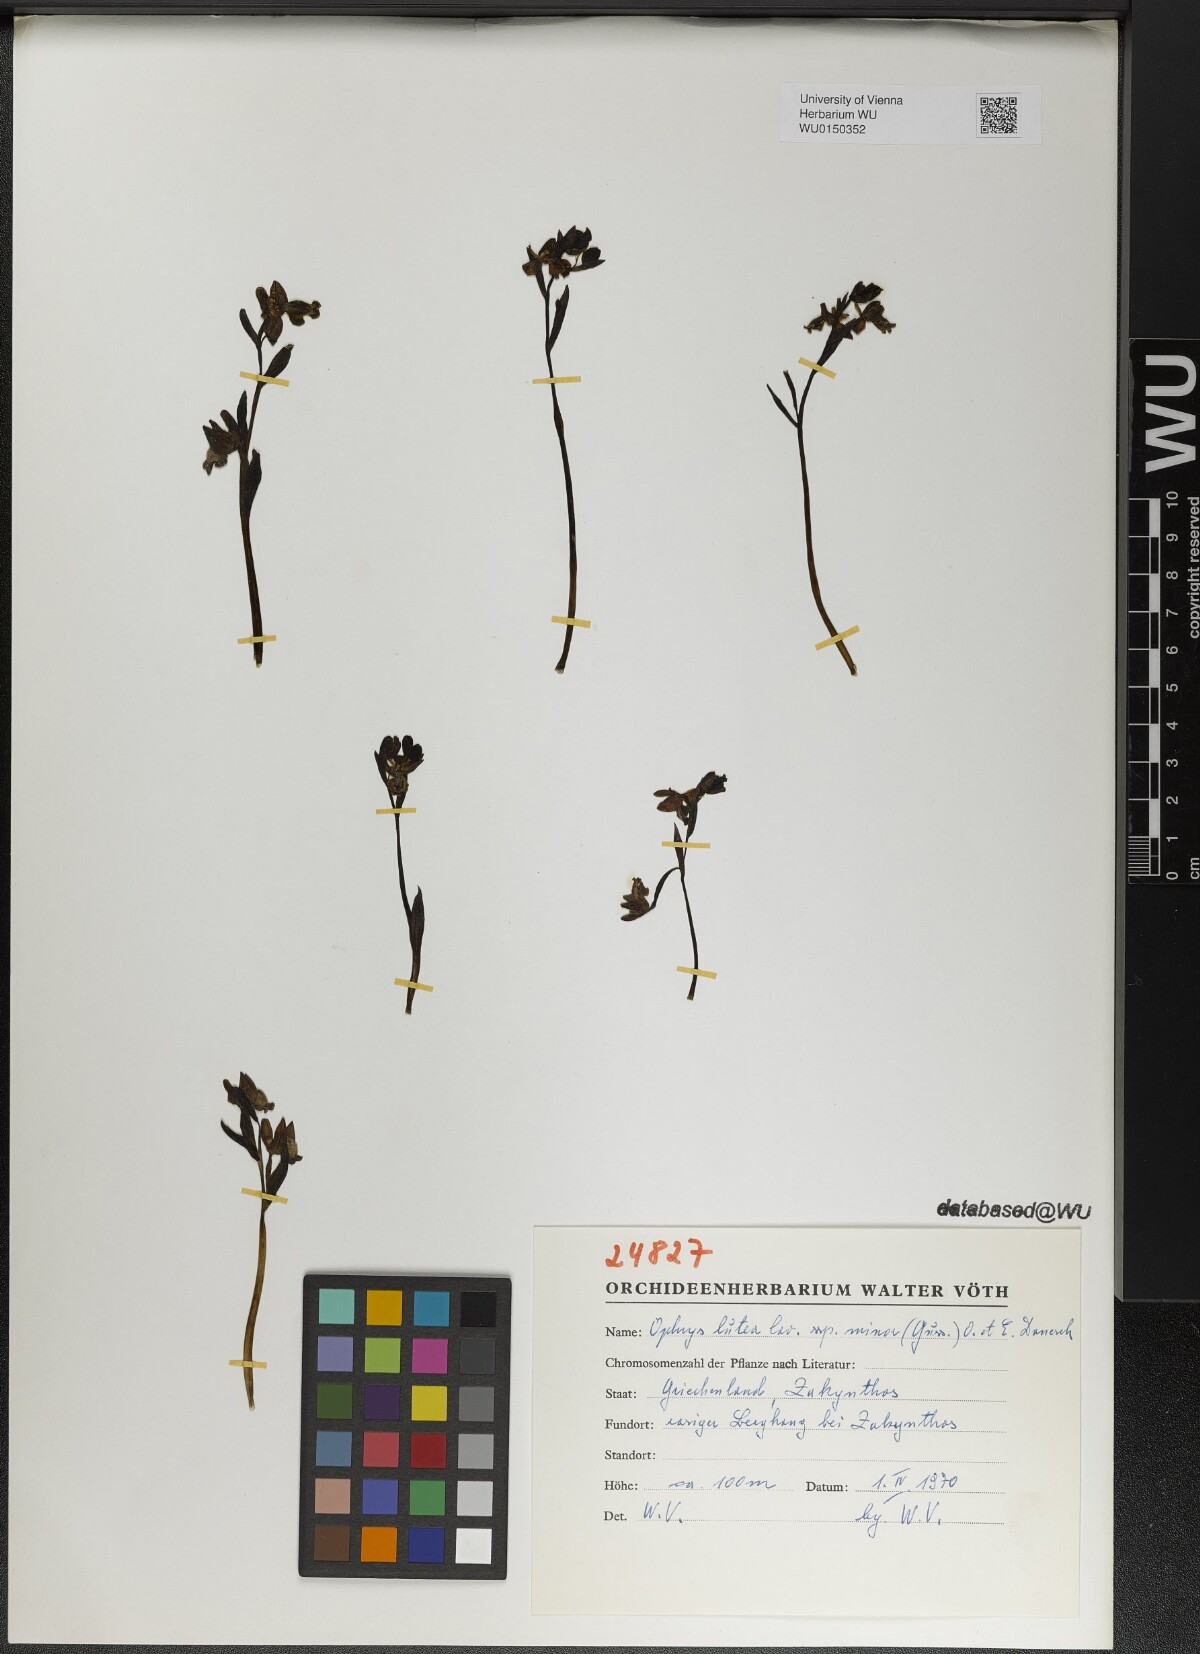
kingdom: Plantae
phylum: Tracheophyta
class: Liliopsida
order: Asparagales
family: Orchidaceae
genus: Ophrys
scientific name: Ophrys lutea
